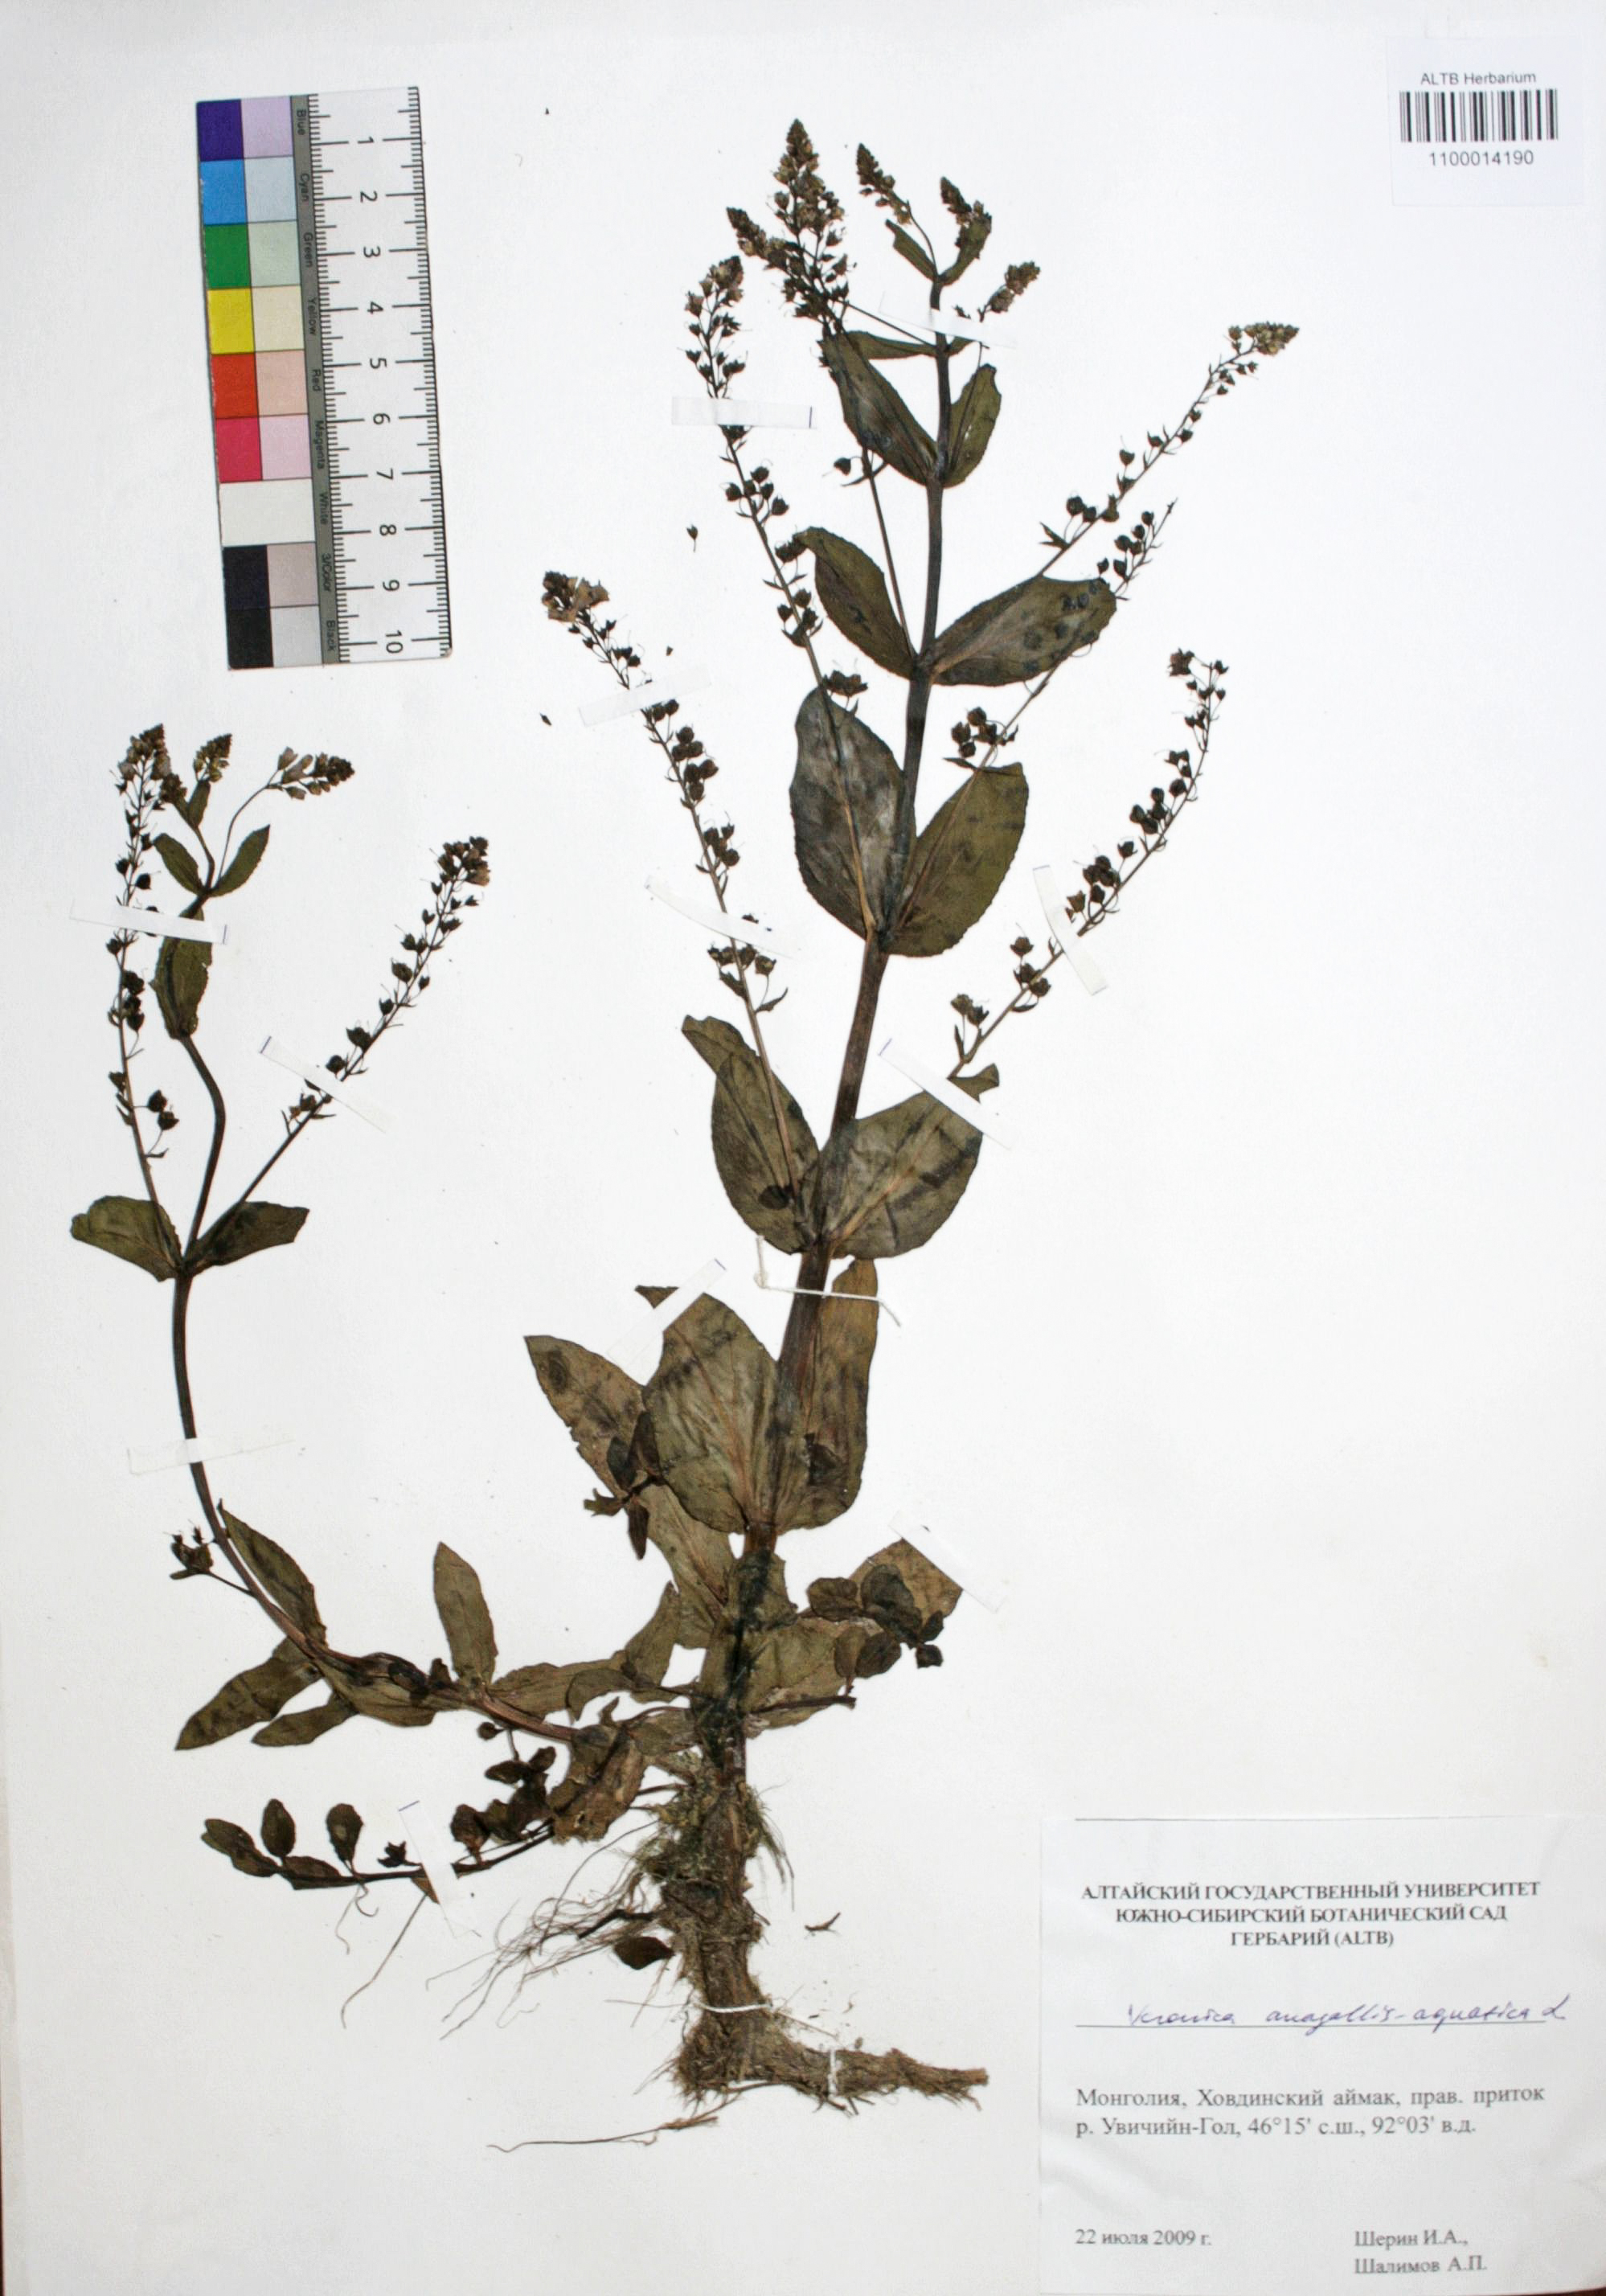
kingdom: Plantae
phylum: Tracheophyta
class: Magnoliopsida
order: Lamiales
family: Plantaginaceae
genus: Veronica
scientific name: Veronica anagallis-aquatica
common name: Water speedwell
